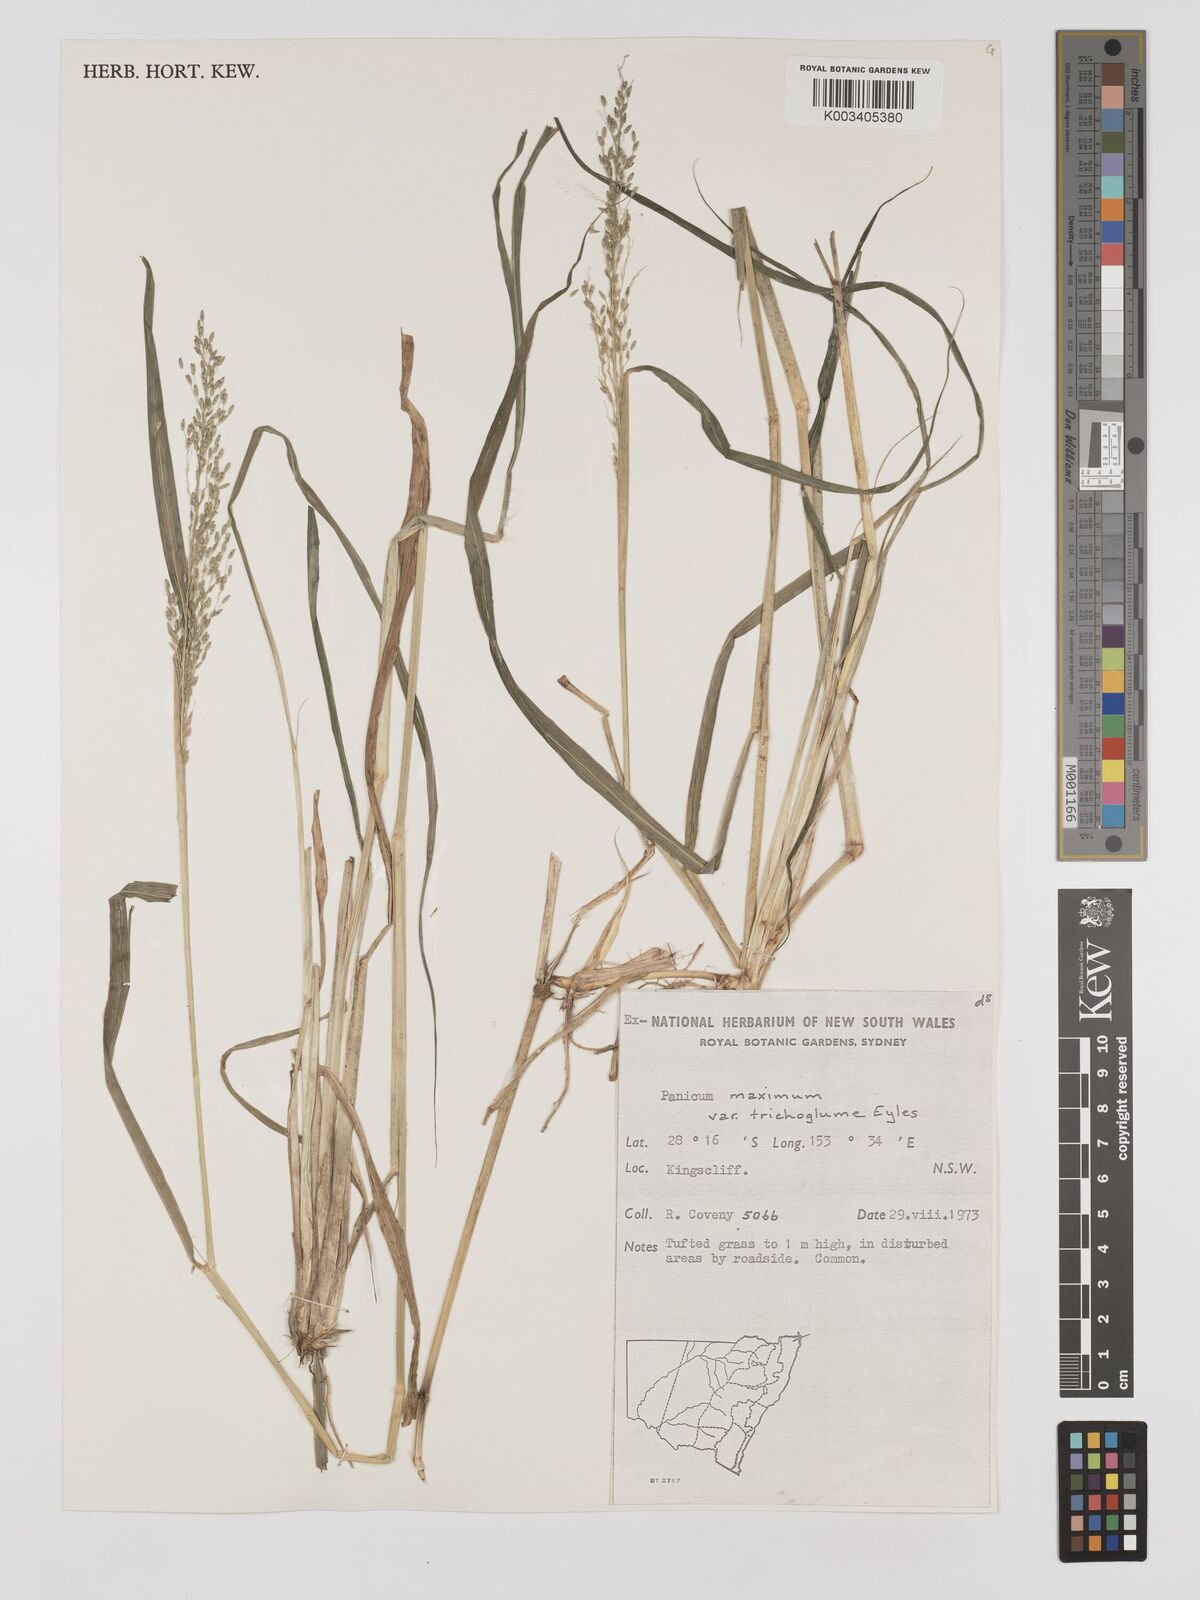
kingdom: Plantae
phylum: Tracheophyta
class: Liliopsida
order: Poales
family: Poaceae
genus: Megathyrsus
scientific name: Megathyrsus maximus
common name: Guineagrass
